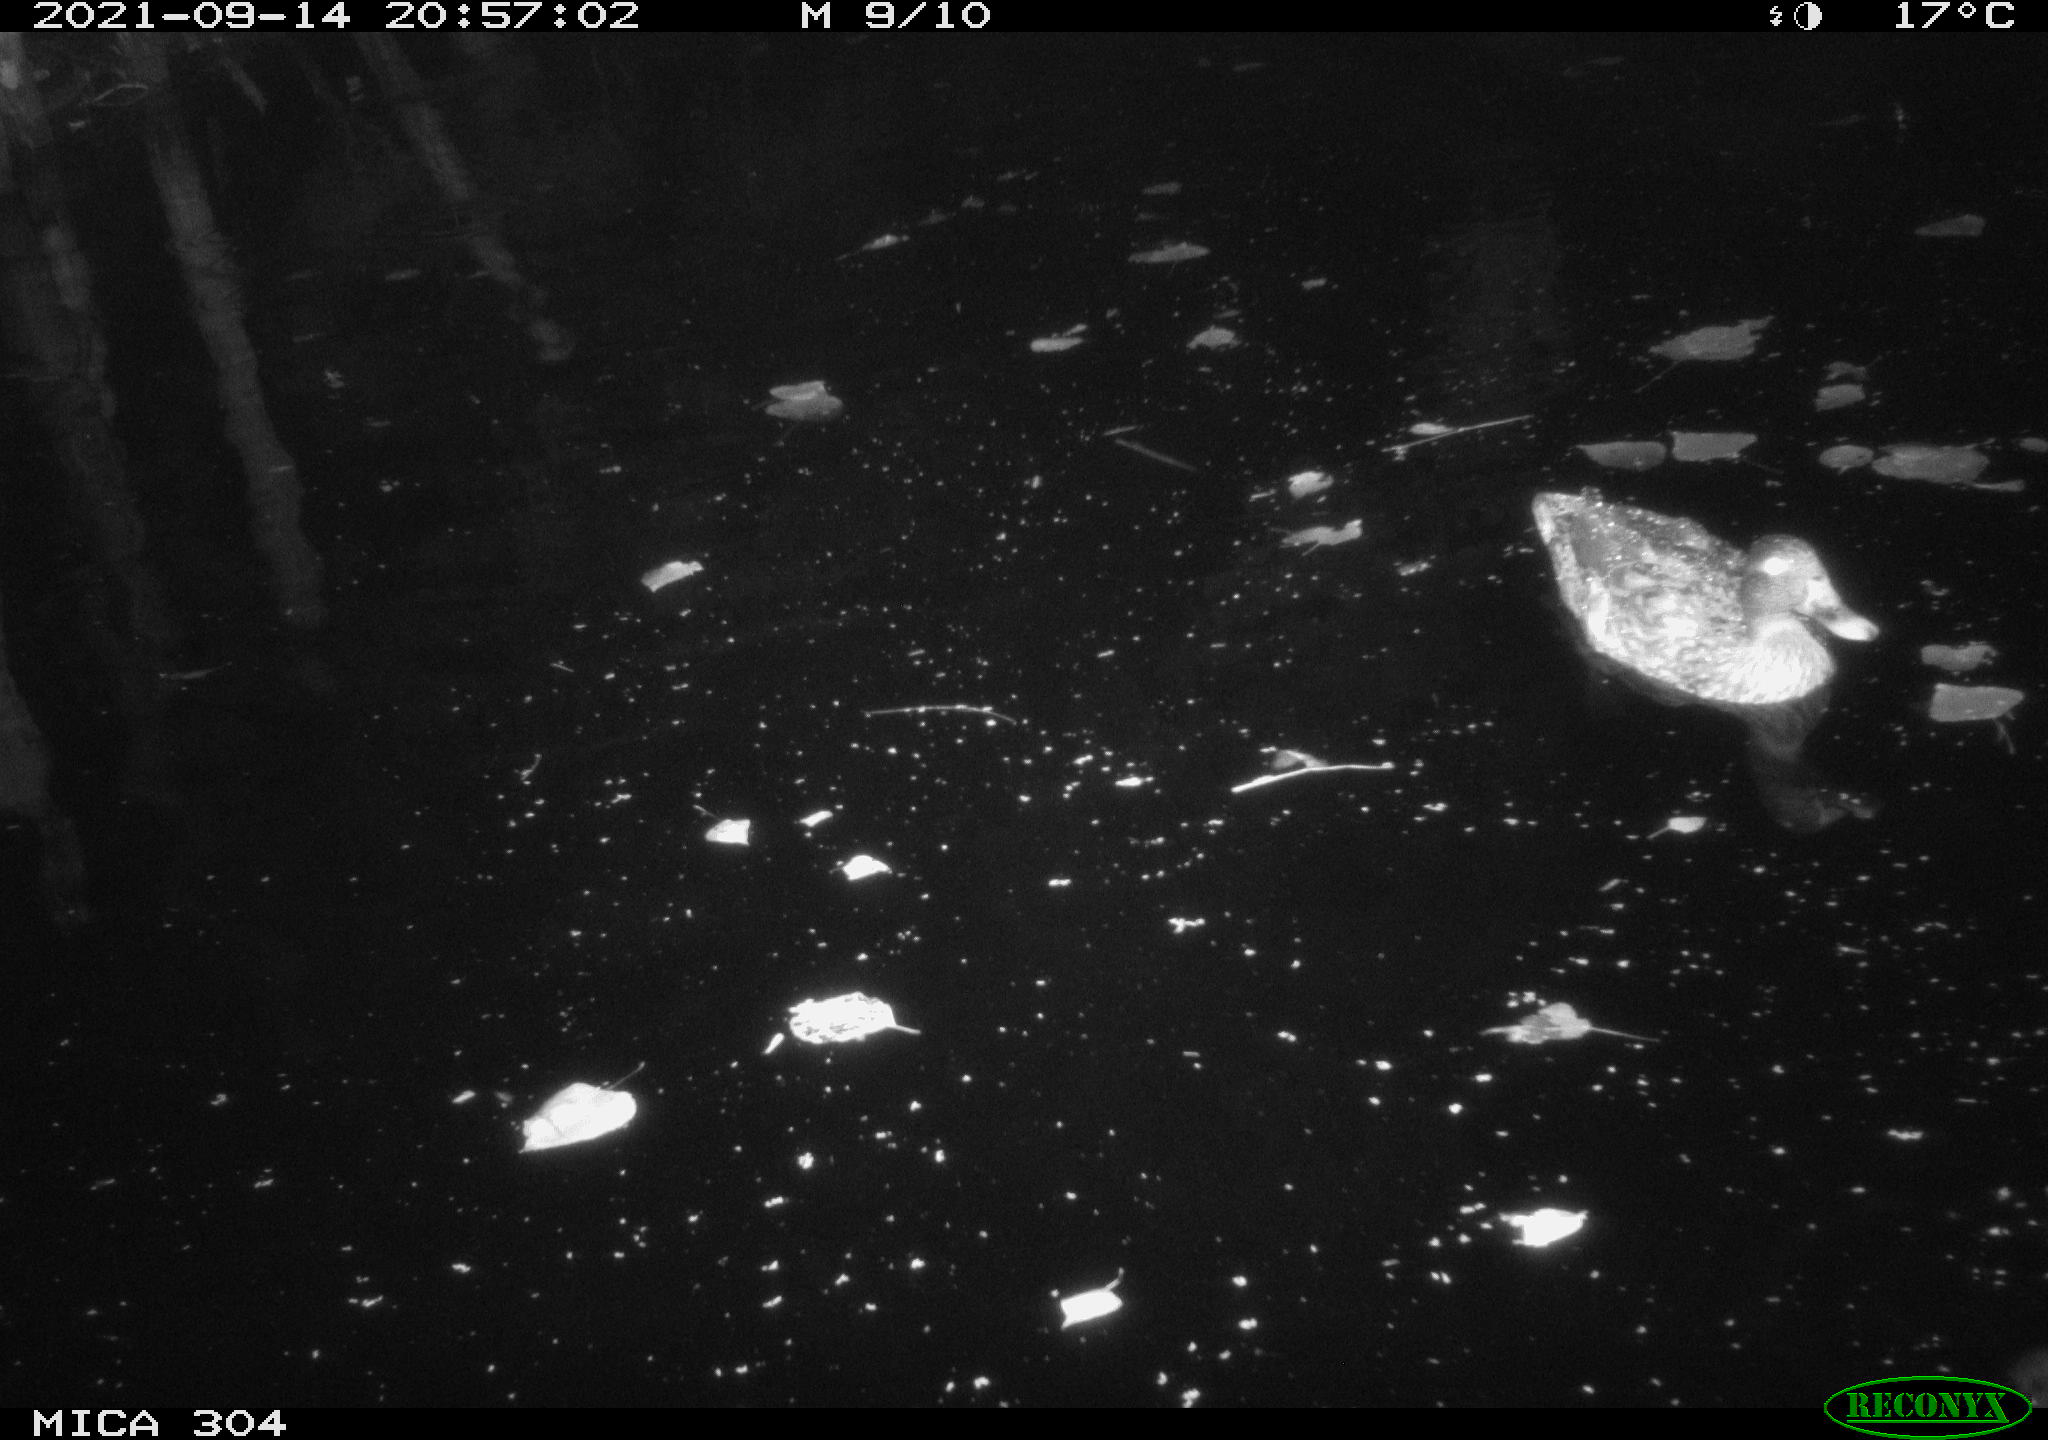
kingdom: Animalia
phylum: Chordata
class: Aves
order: Anseriformes
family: Anatidae
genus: Mareca
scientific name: Mareca strepera
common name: Gadwall
